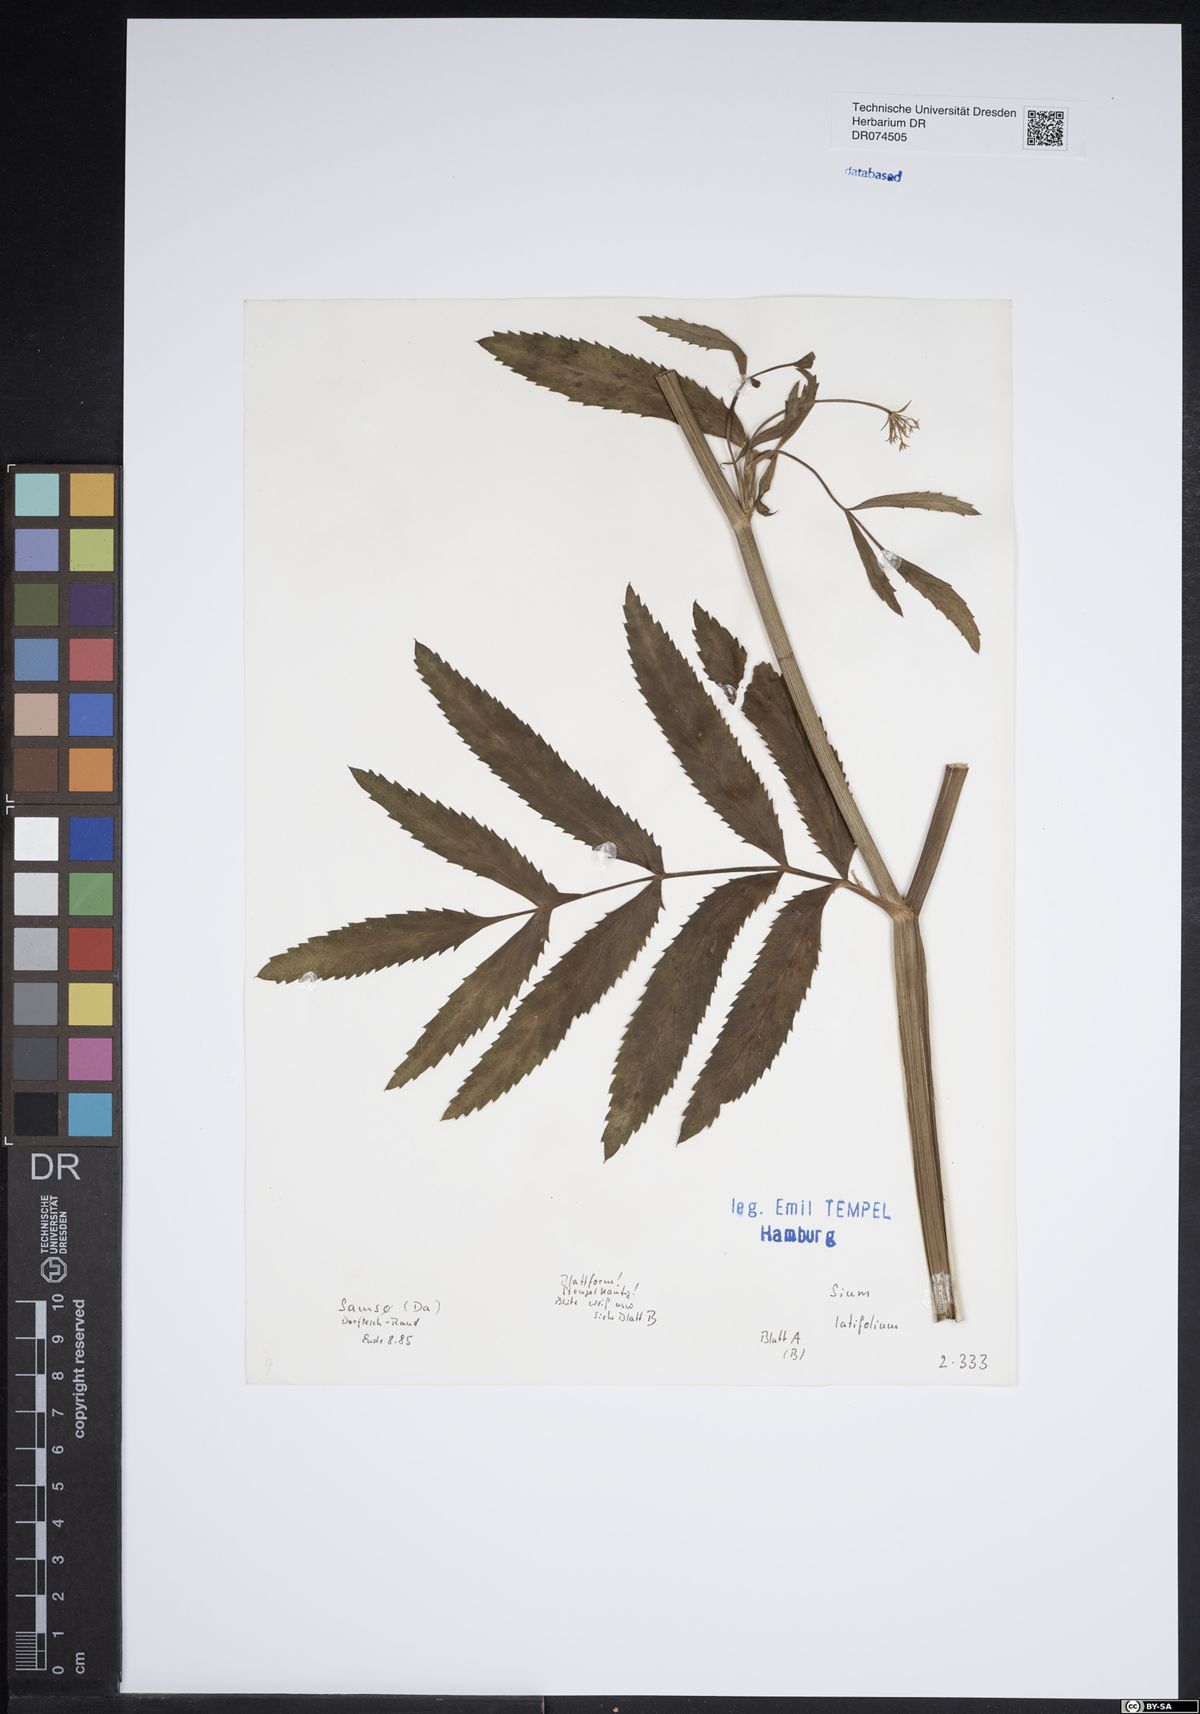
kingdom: Plantae
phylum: Tracheophyta
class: Magnoliopsida
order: Apiales
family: Apiaceae
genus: Sium
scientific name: Sium latifolium
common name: Greater water-parsnip
